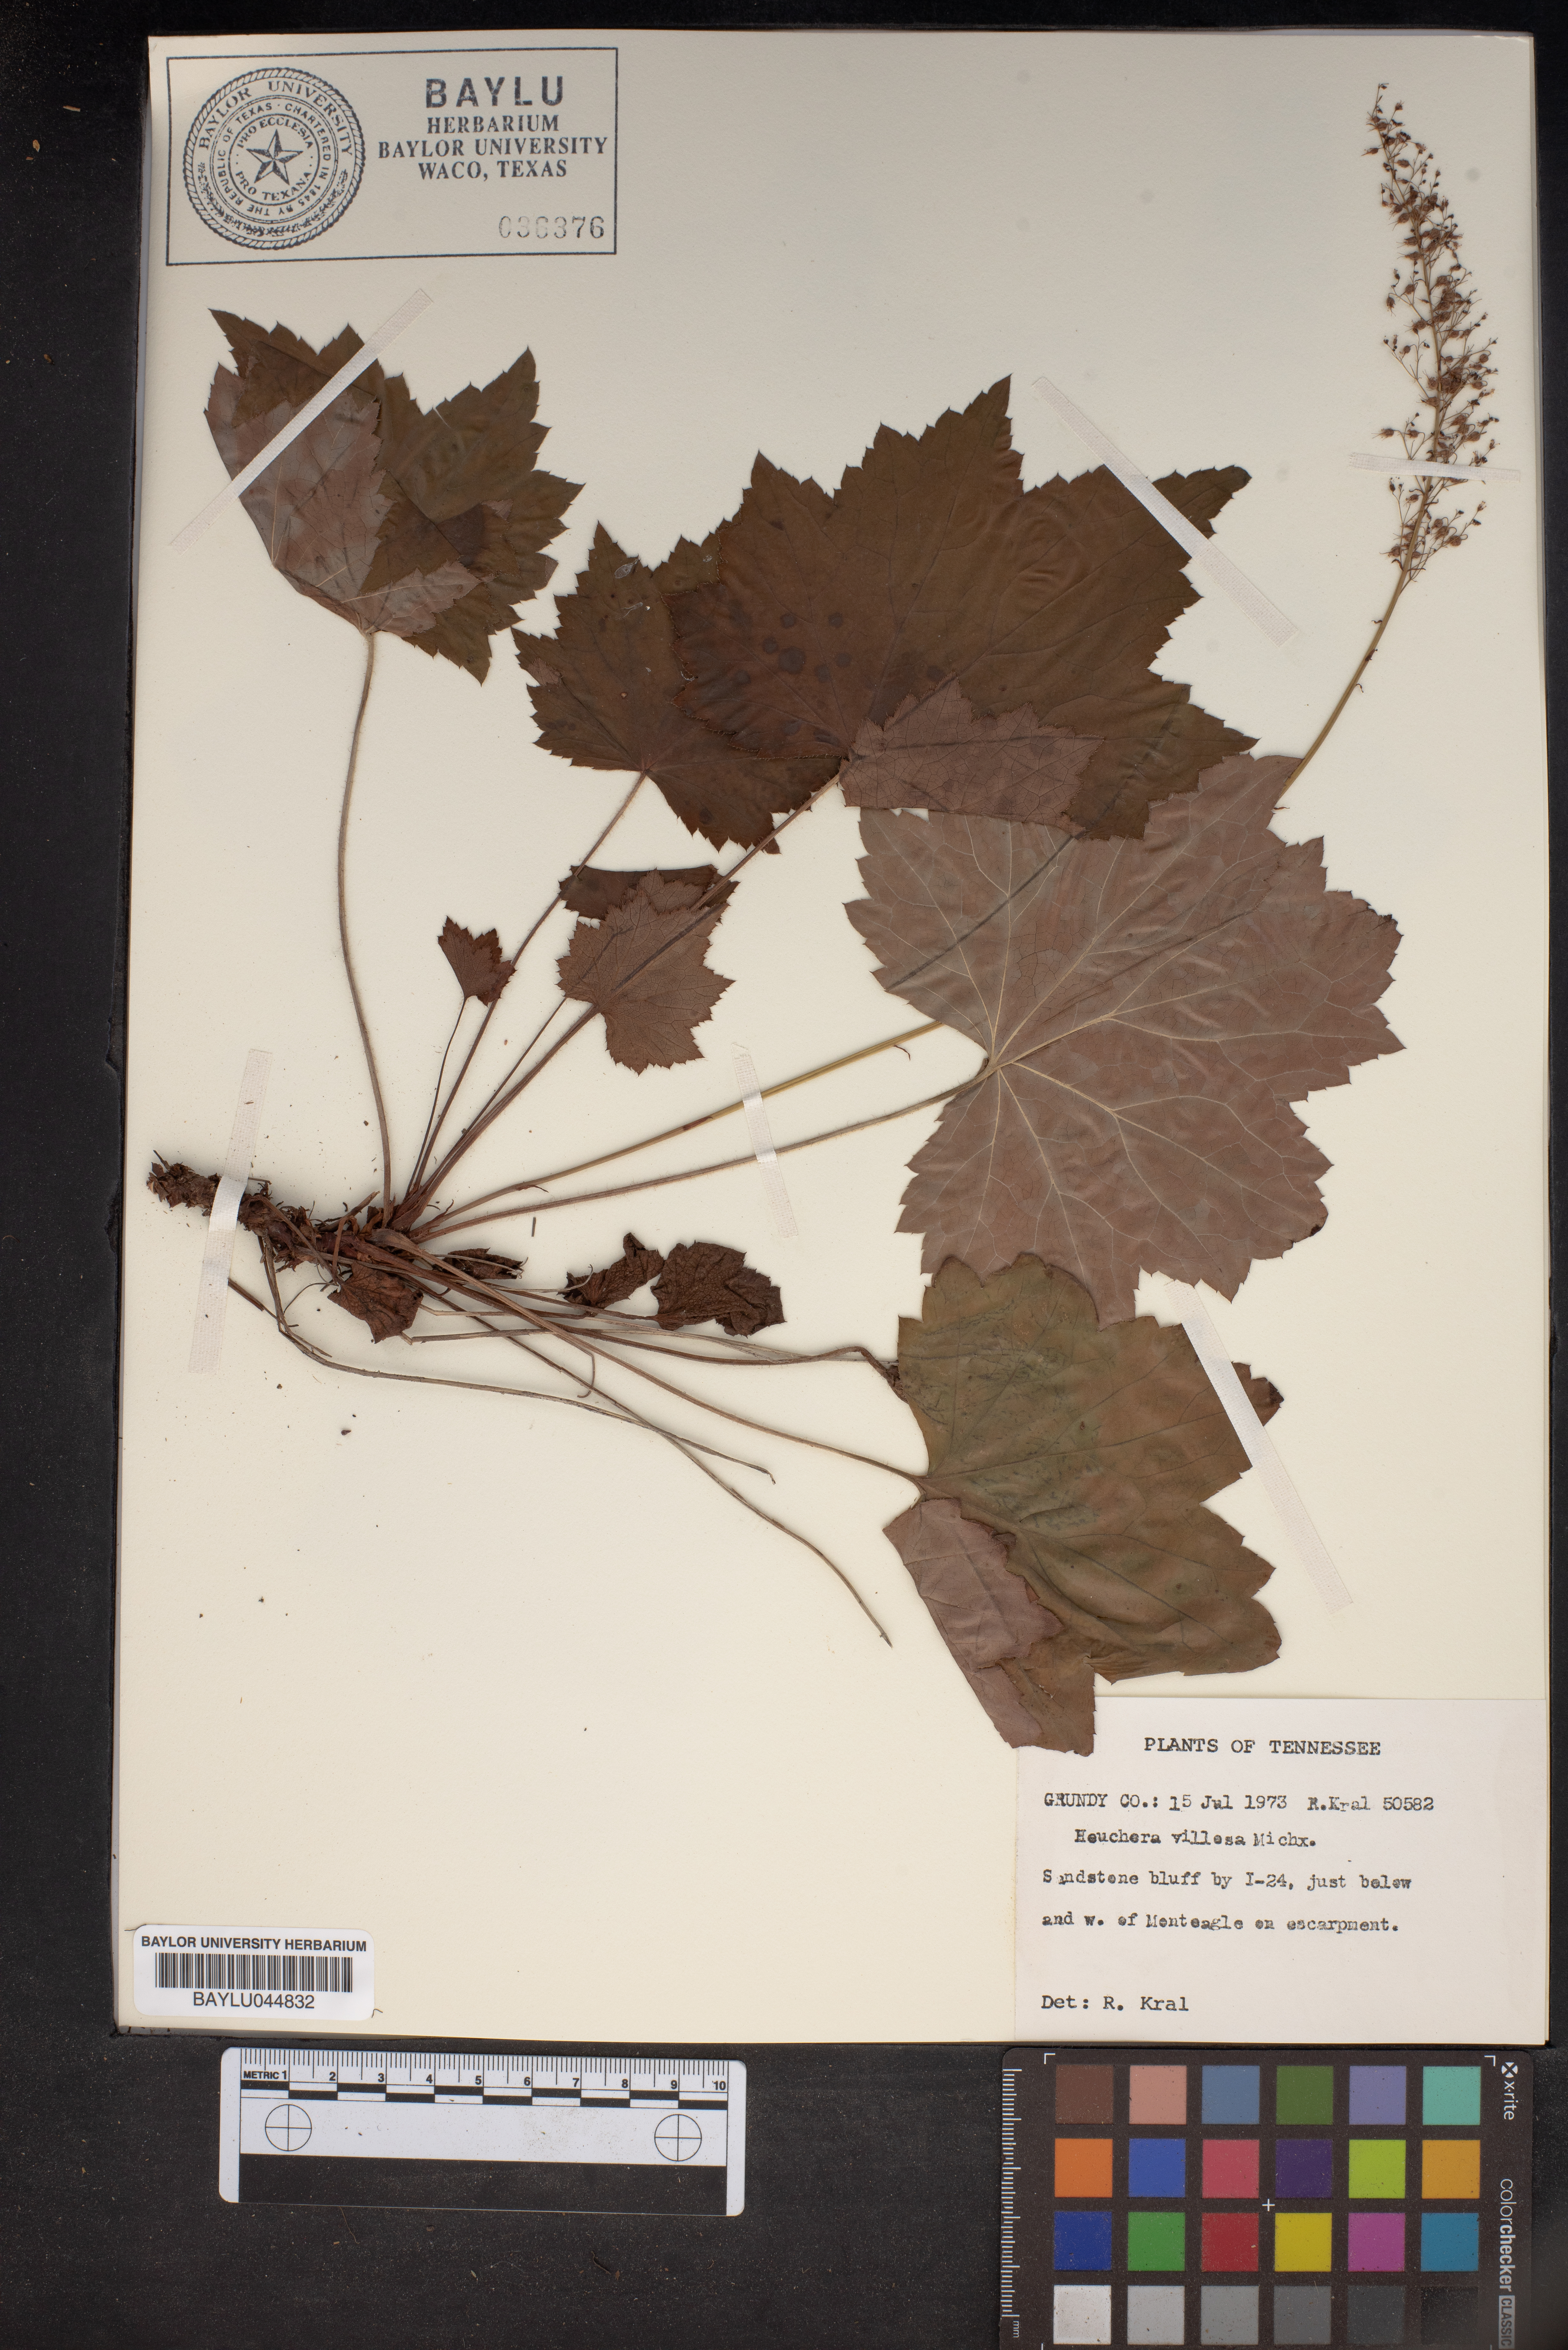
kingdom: Plantae
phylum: Tracheophyta
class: Magnoliopsida
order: Saxifragales
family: Saxifragaceae
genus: Heuchera
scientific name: Heuchera villosa
